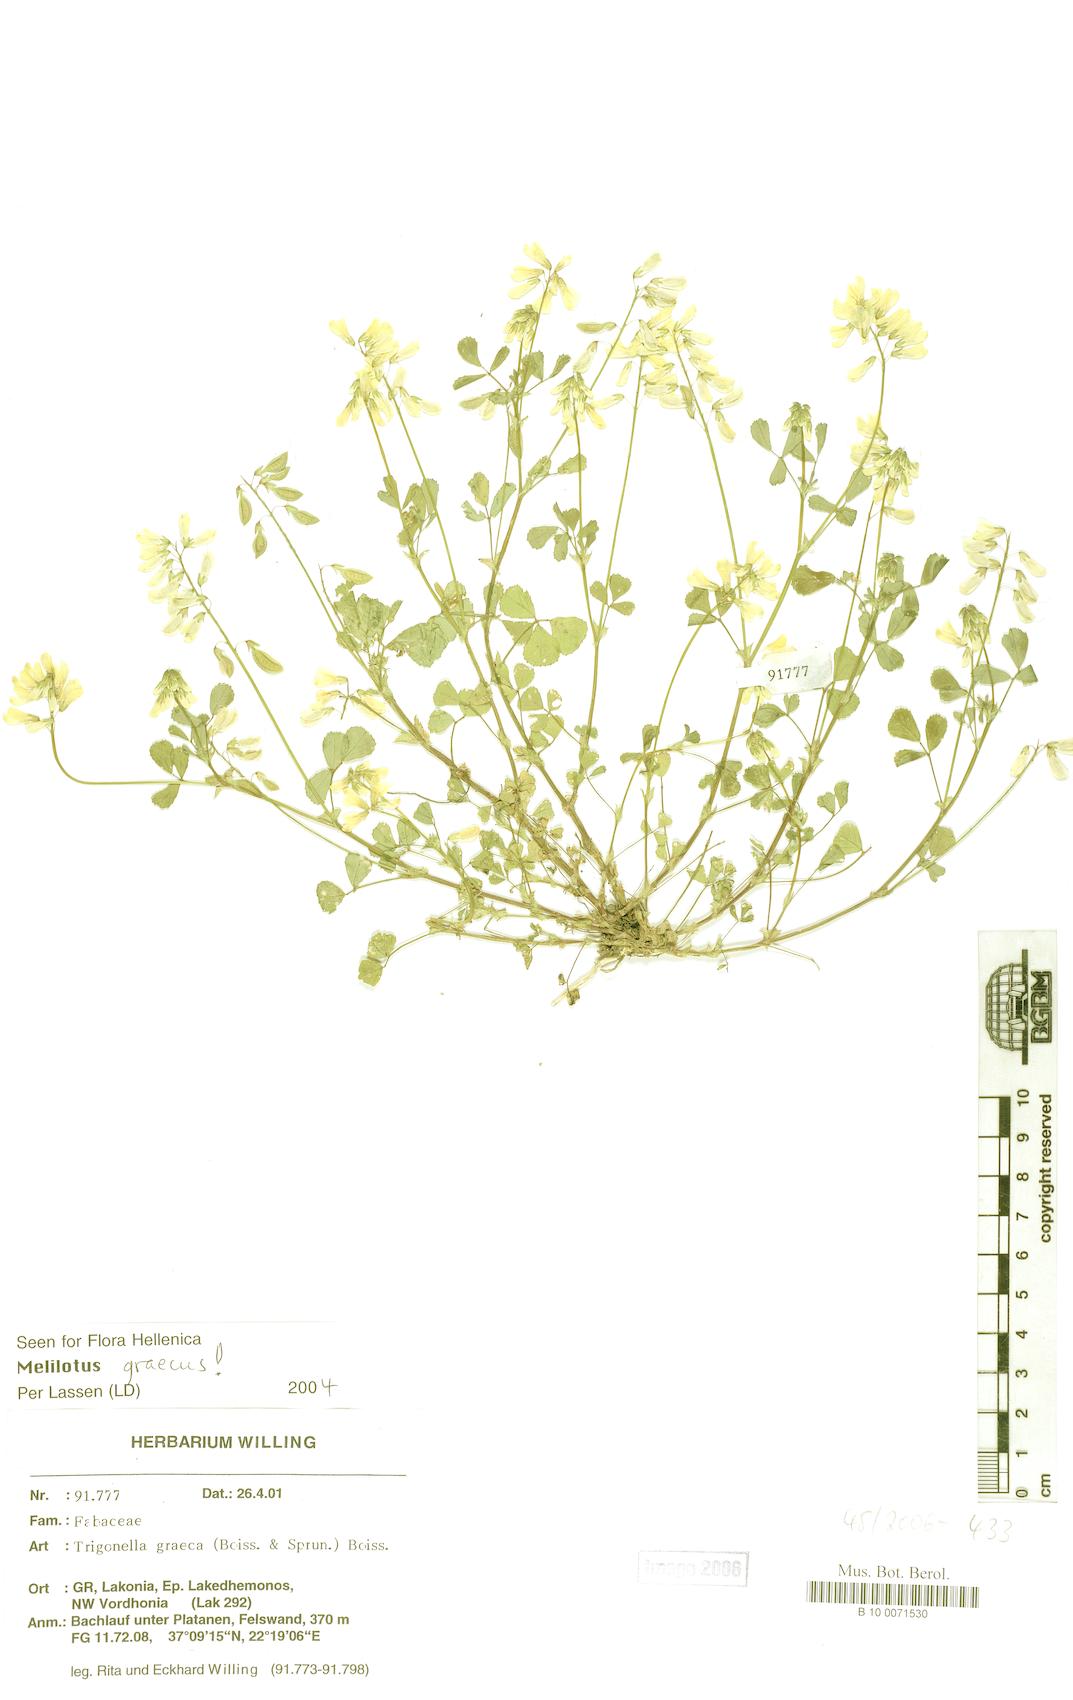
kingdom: Plantae
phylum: Tracheophyta
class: Magnoliopsida
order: Fabales
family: Fabaceae
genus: Trigonella
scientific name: Trigonella graeca
